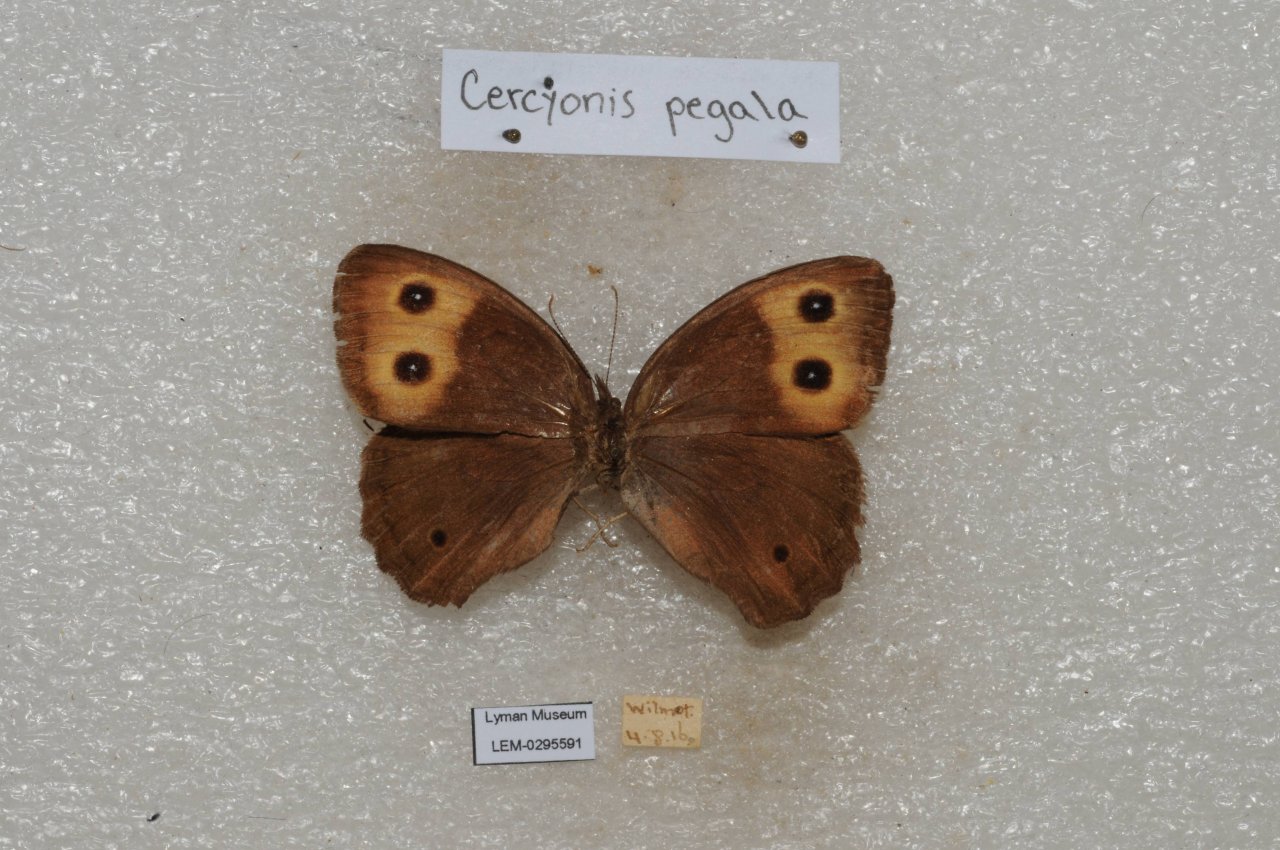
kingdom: Animalia
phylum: Arthropoda
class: Insecta
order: Lepidoptera
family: Nymphalidae
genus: Cercyonis
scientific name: Cercyonis pegala
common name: Common Wood-Nymph
